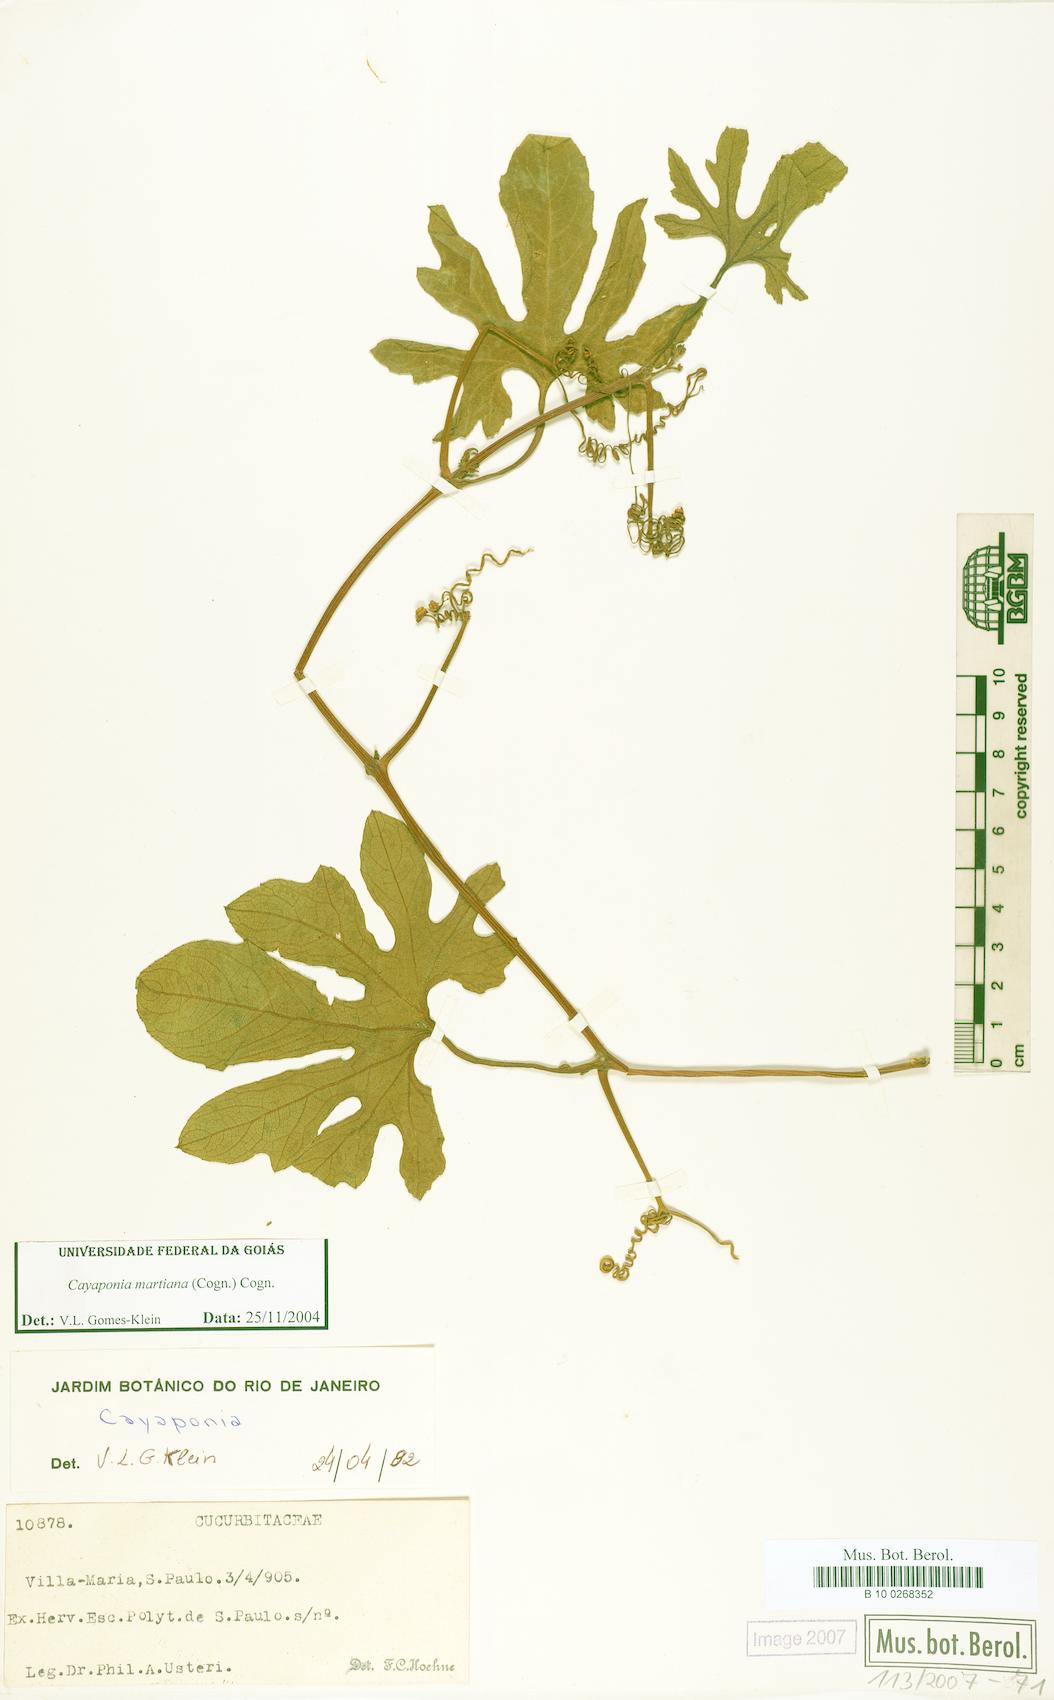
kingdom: Plantae
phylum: Tracheophyta
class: Magnoliopsida
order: Cucurbitales
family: Cucurbitaceae
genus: Cayaponia
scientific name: Cayaponia martiana
